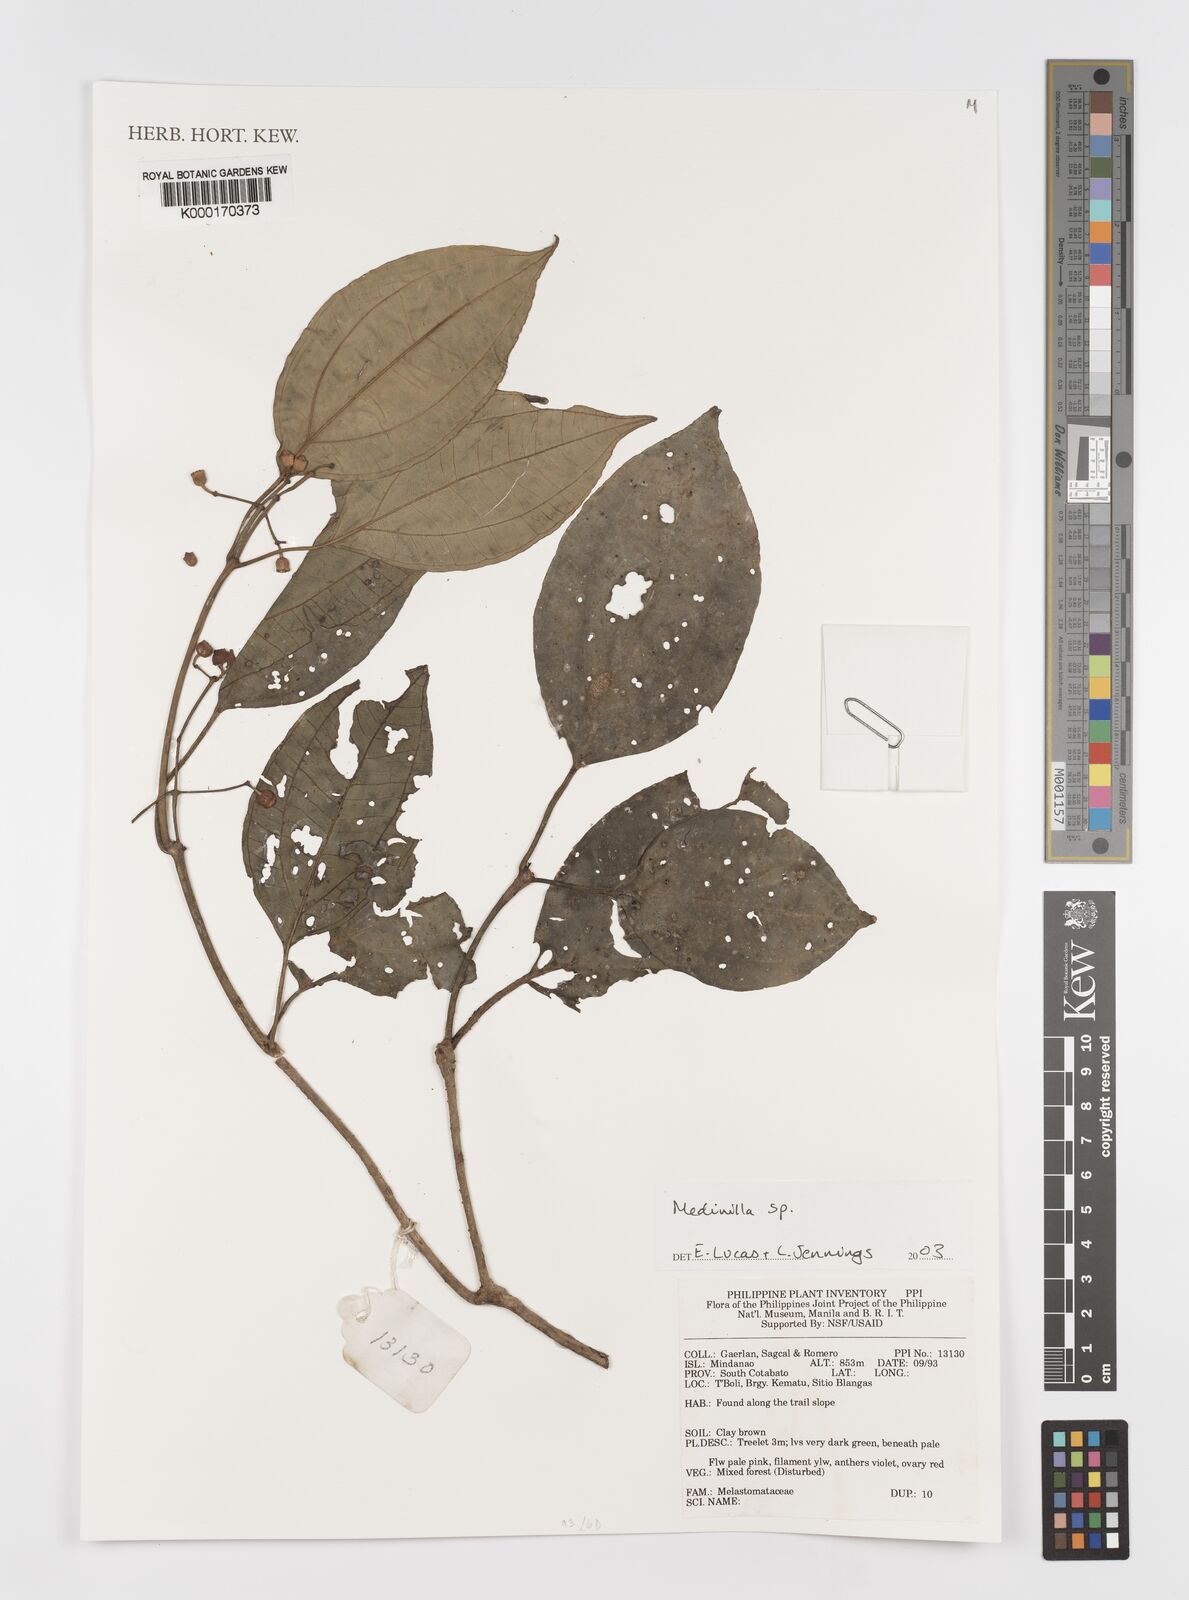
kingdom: Plantae
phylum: Tracheophyta
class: Magnoliopsida
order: Myrtales
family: Melastomataceae
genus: Medinilla
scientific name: Medinilla
